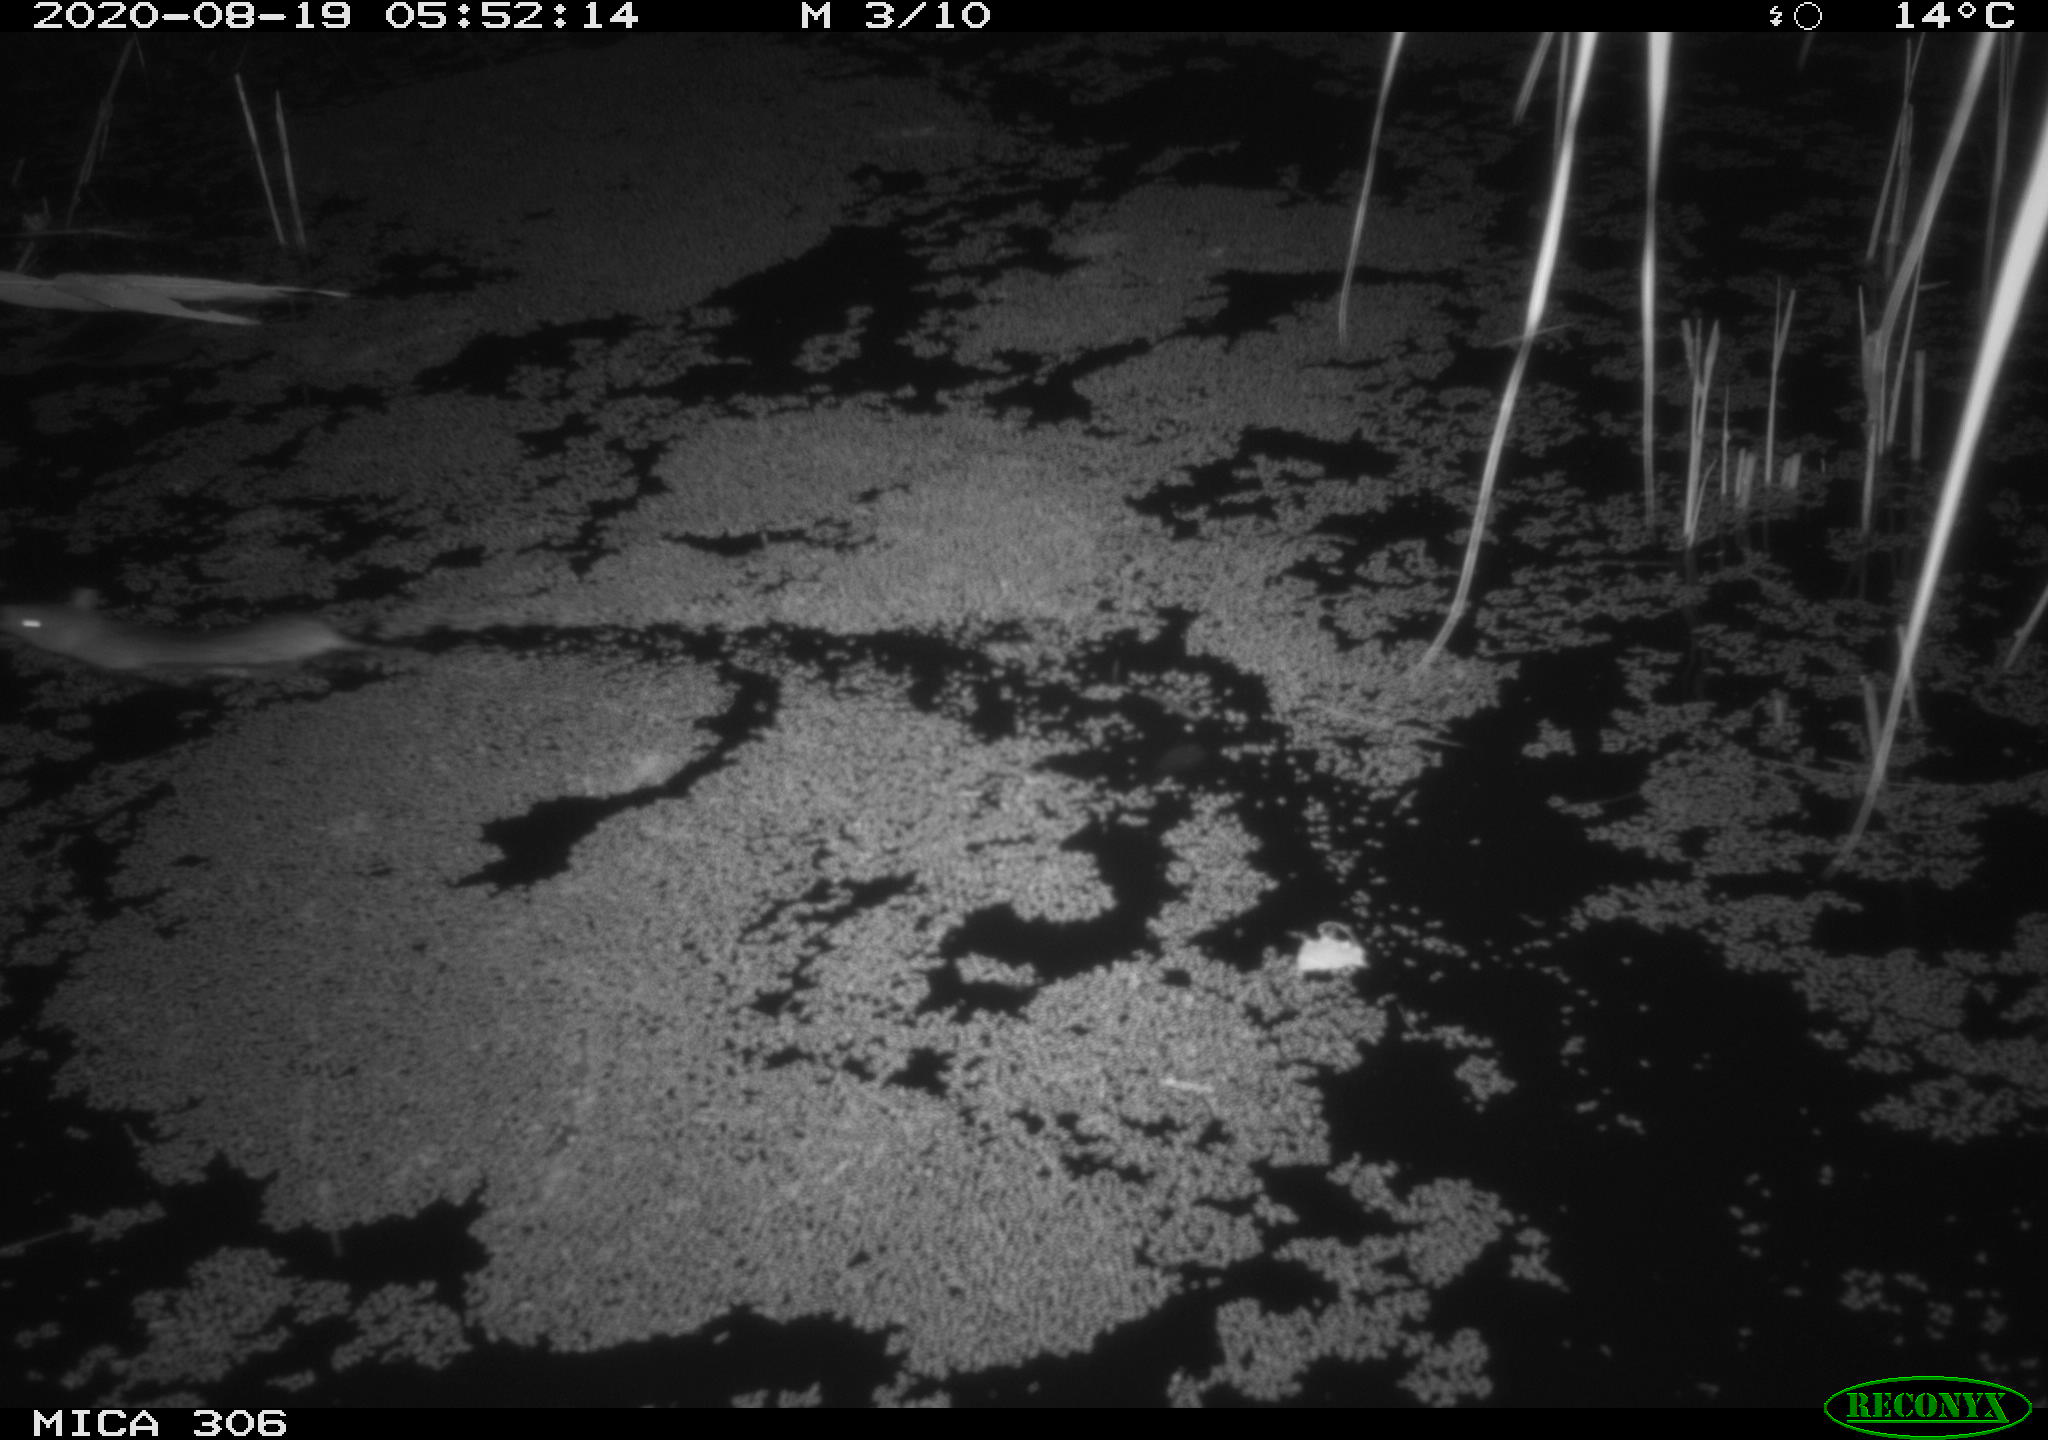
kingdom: Animalia
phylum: Chordata
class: Mammalia
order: Rodentia
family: Muridae
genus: Rattus
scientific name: Rattus norvegicus
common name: Brown rat
